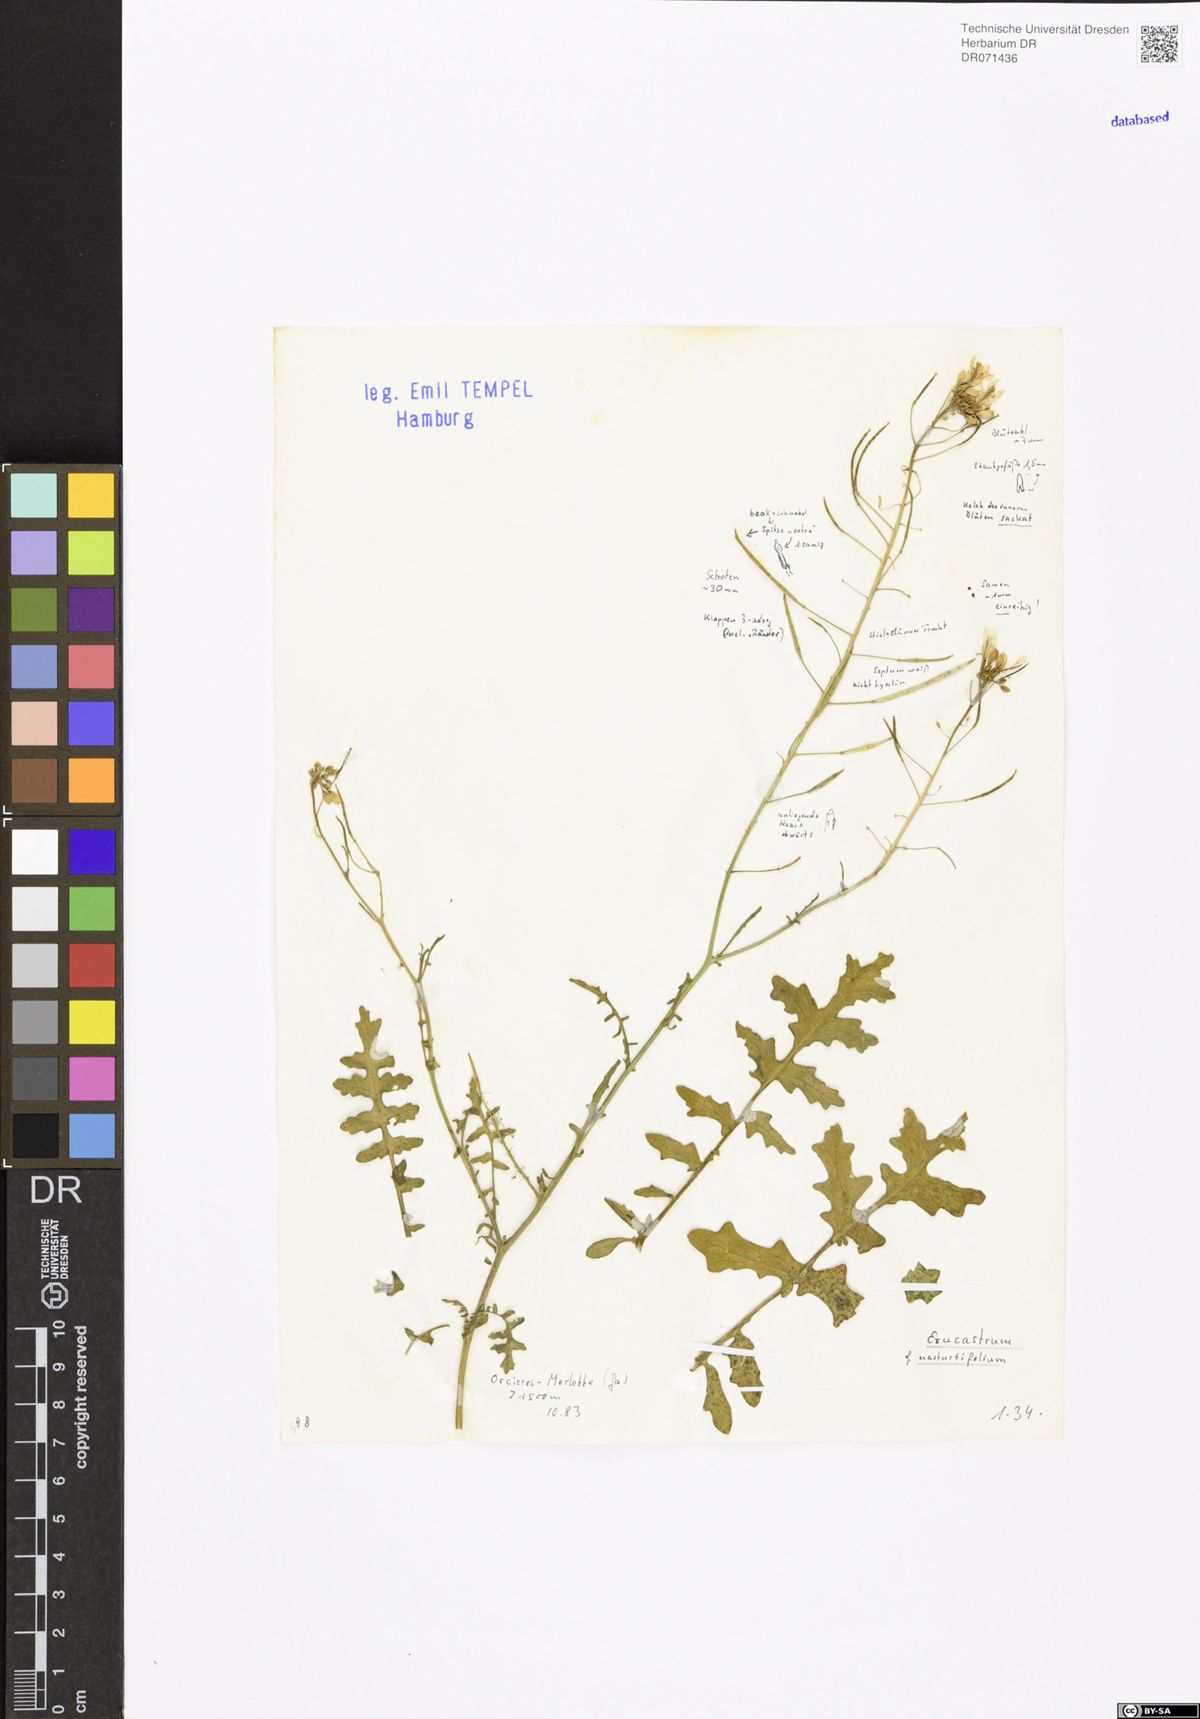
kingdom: Plantae
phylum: Tracheophyta
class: Magnoliopsida
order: Brassicales
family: Brassicaceae
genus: Erucastrum
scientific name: Erucastrum nasturtiifolium
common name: Watercress-leaf rocket
